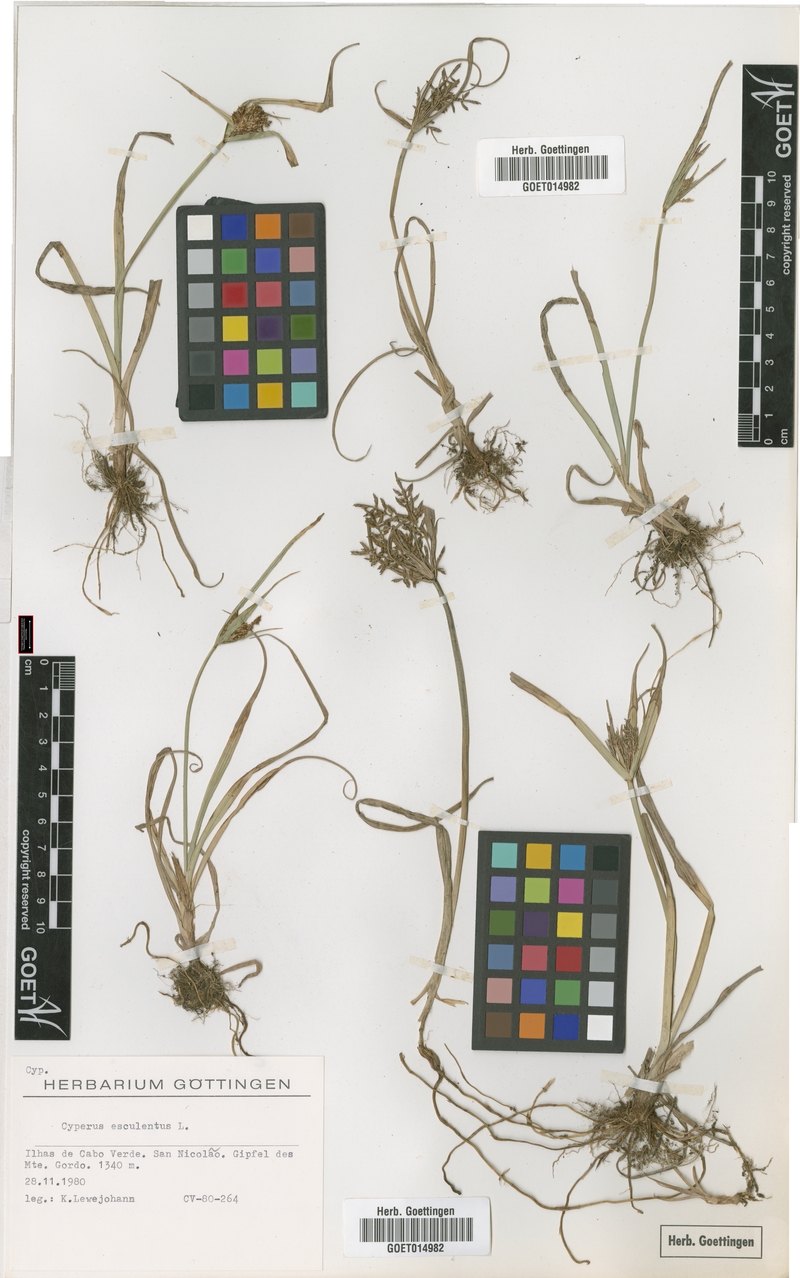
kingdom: Plantae
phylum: Tracheophyta
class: Liliopsida
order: Poales
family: Cyperaceae
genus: Cyperus
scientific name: Cyperus esculentus
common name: Yellow nutsedge
